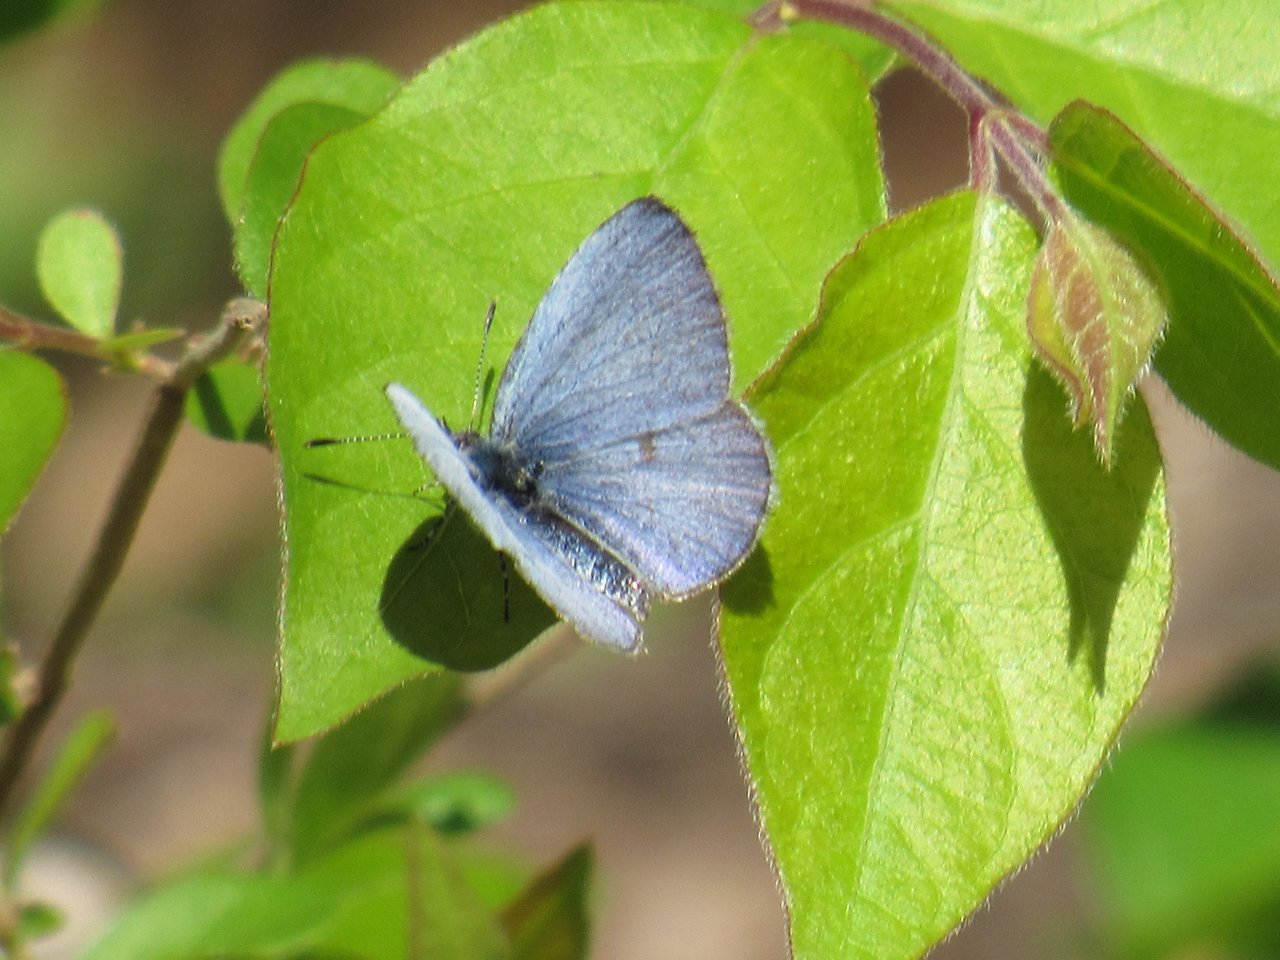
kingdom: Animalia
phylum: Arthropoda
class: Insecta
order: Lepidoptera
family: Lycaenidae
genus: Celastrina
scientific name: Celastrina ladon
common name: Spring Azure
